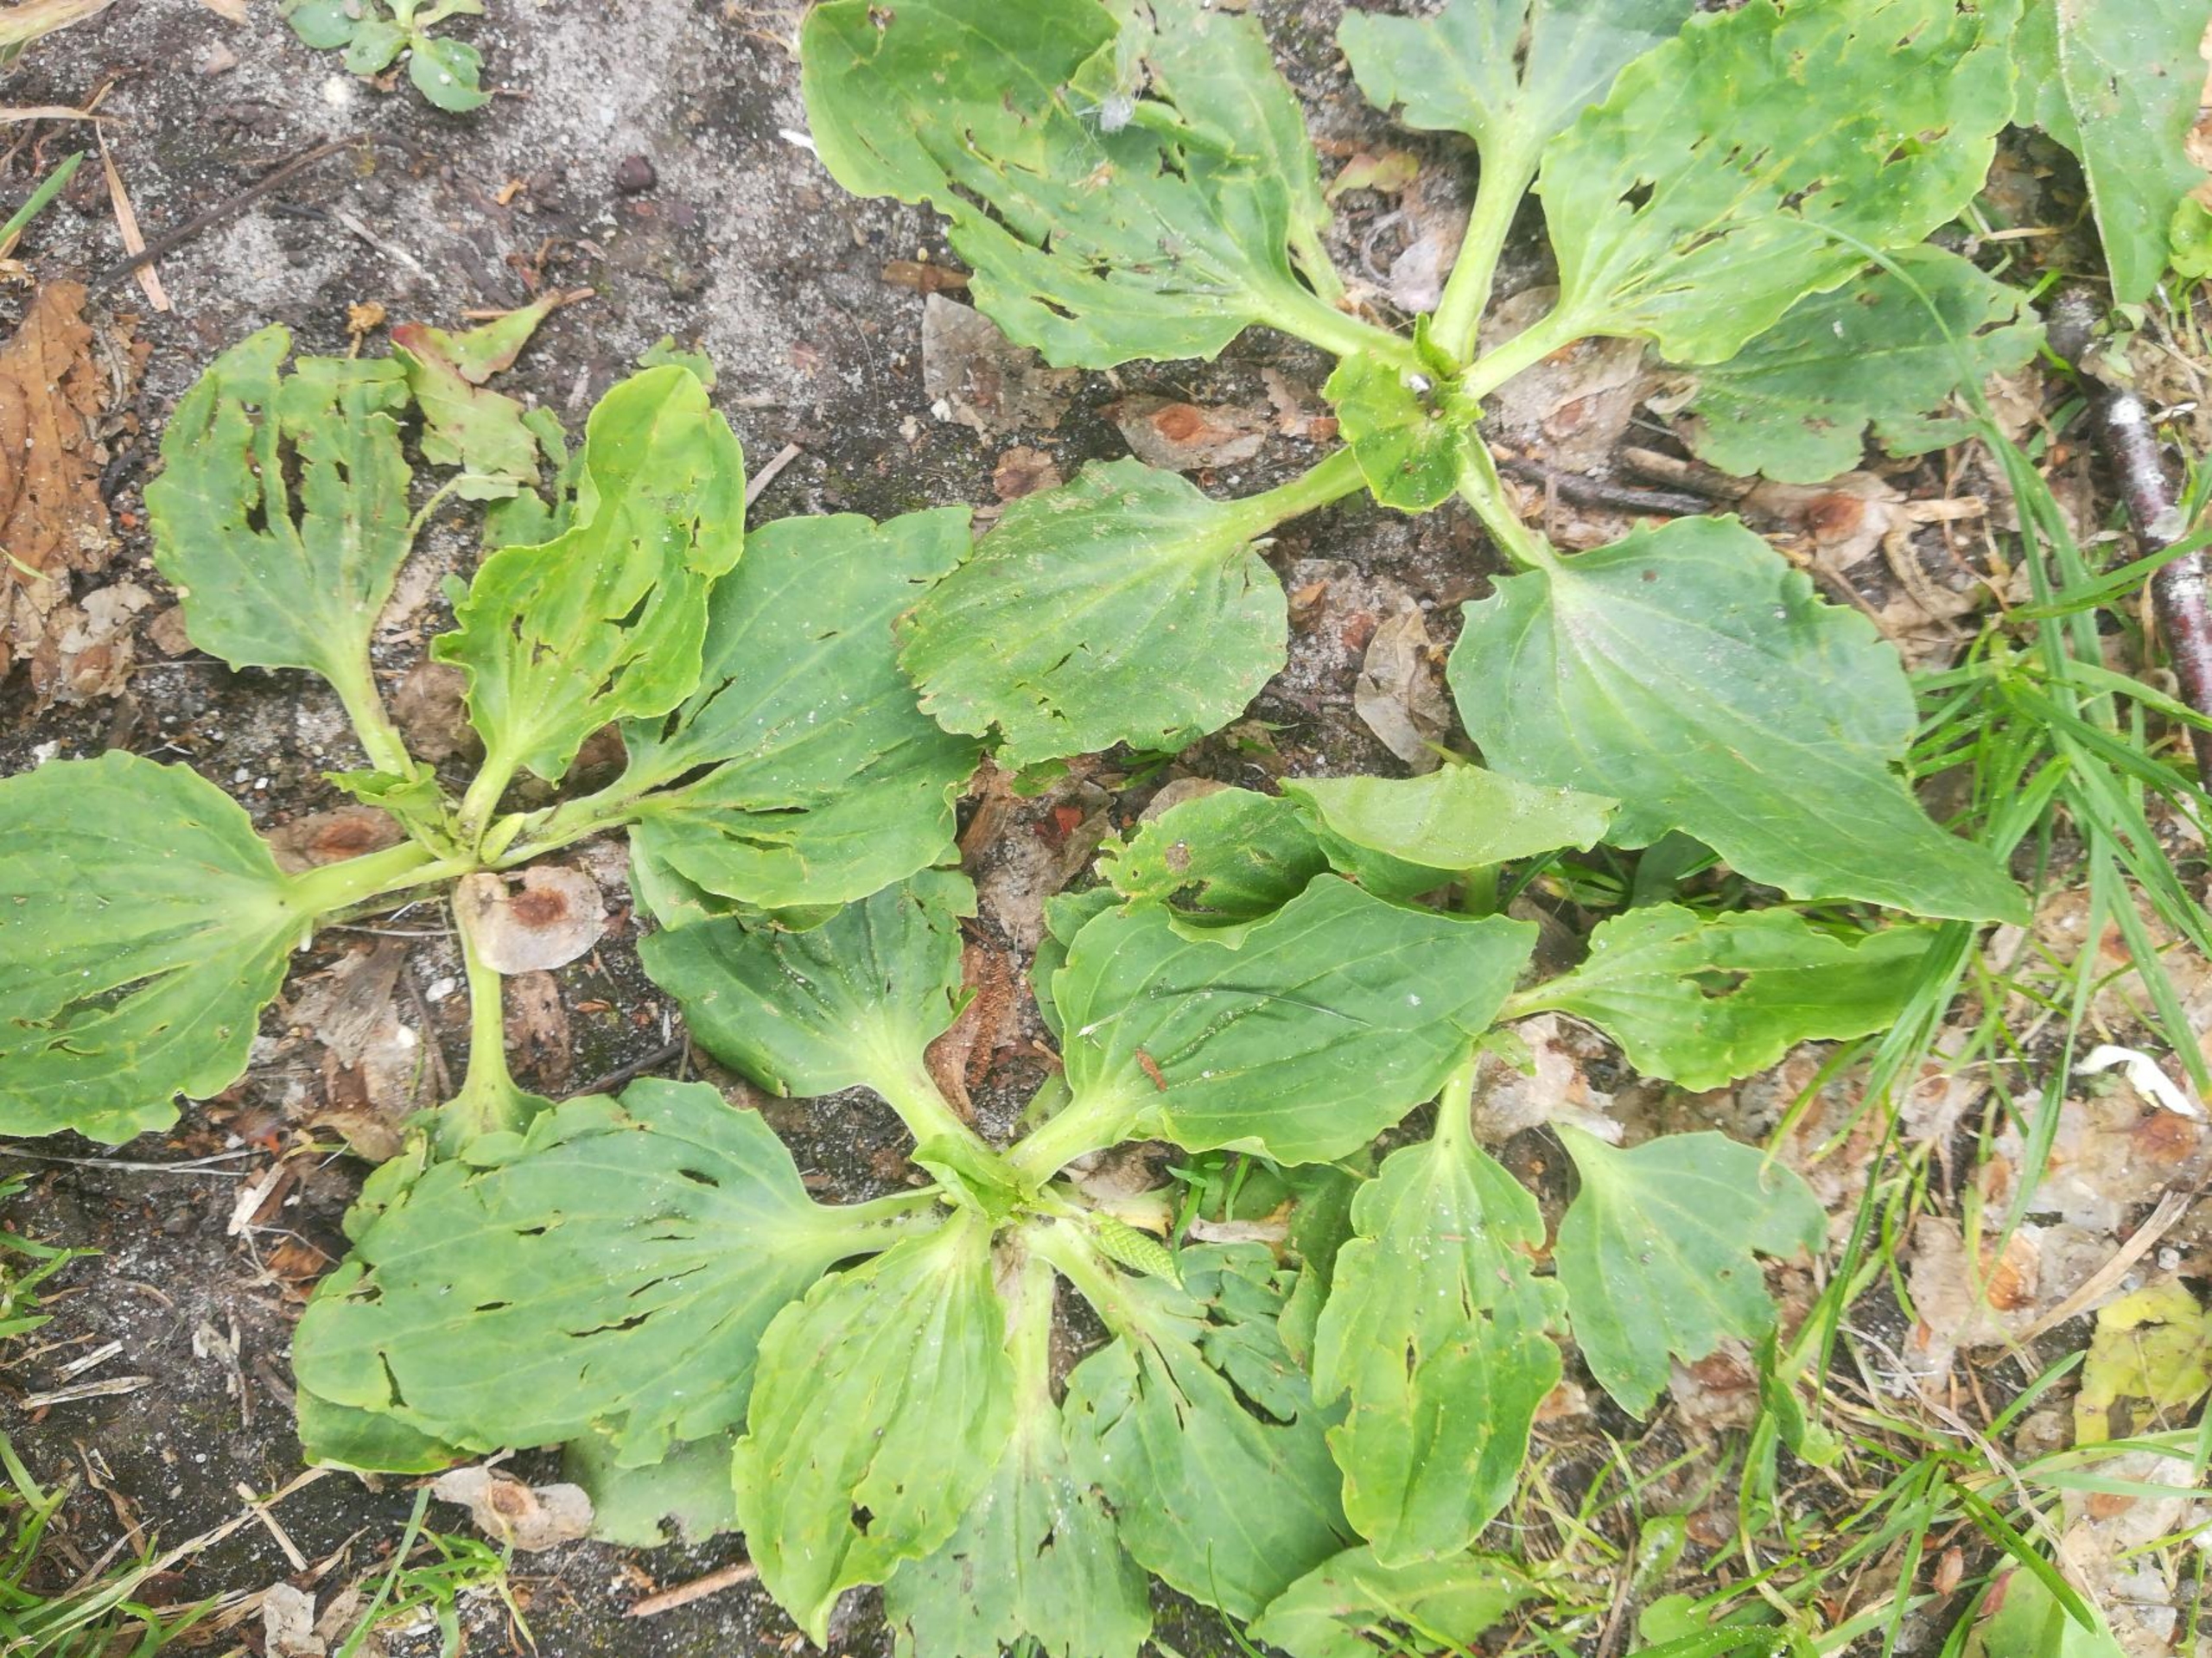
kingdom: Plantae
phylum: Tracheophyta
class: Magnoliopsida
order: Lamiales
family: Plantaginaceae
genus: Plantago
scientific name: Plantago major
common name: Glat vejbred
